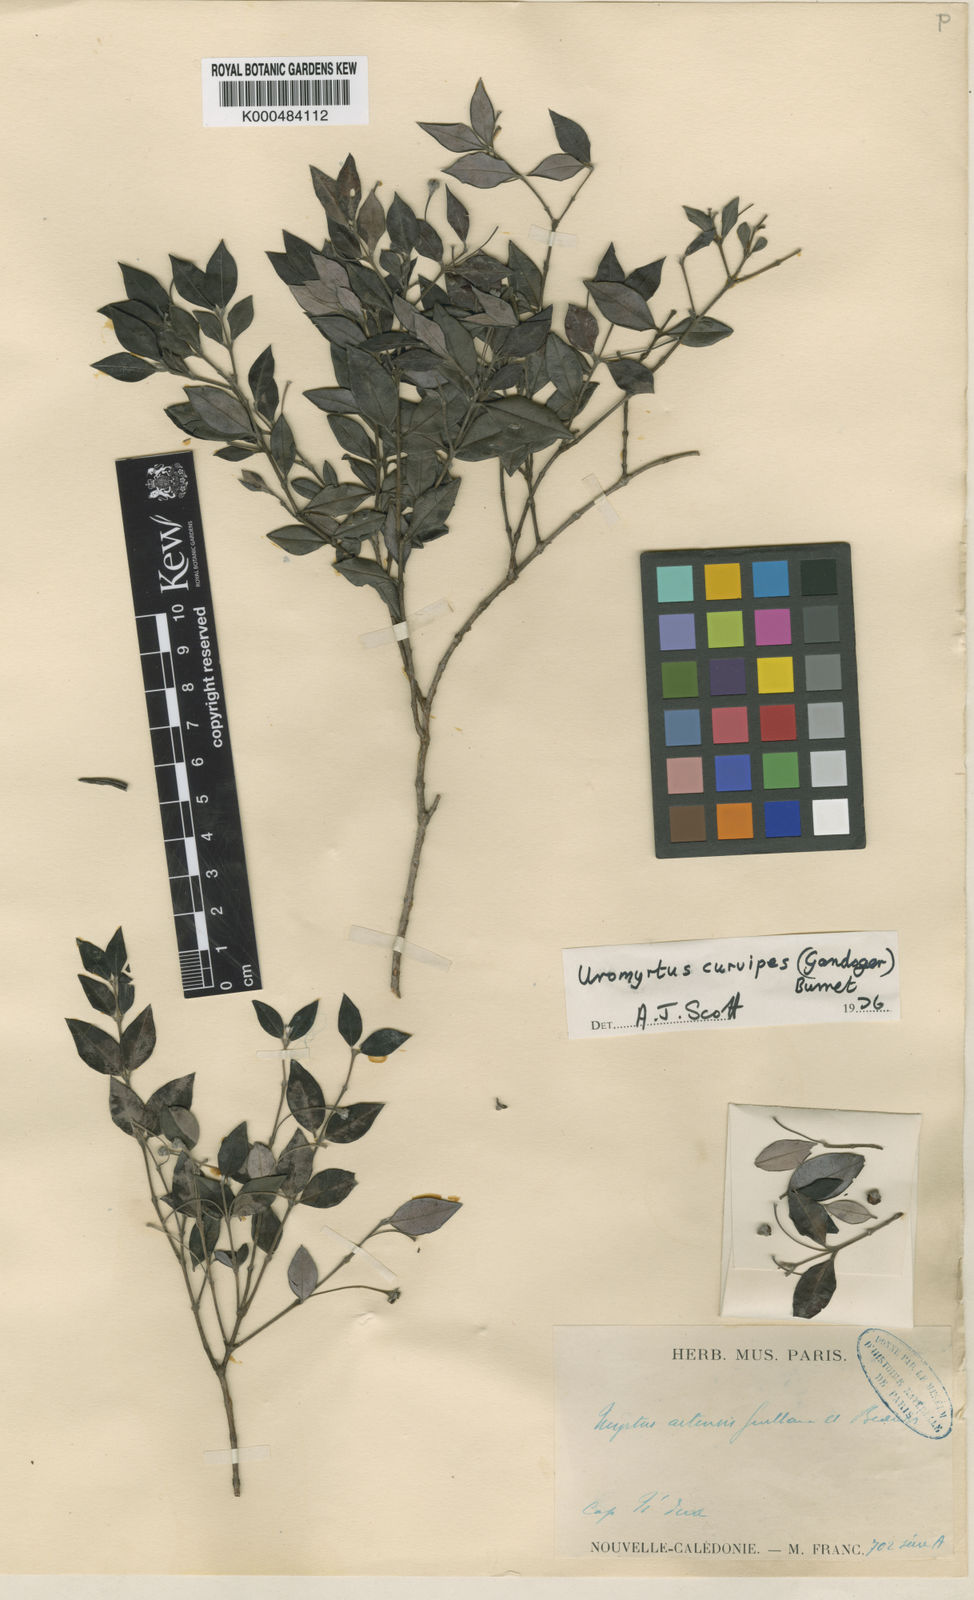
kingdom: Plantae
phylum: Tracheophyta
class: Magnoliopsida
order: Myrtales
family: Myrtaceae
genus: Uromyrtus
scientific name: Uromyrtus billardierei
